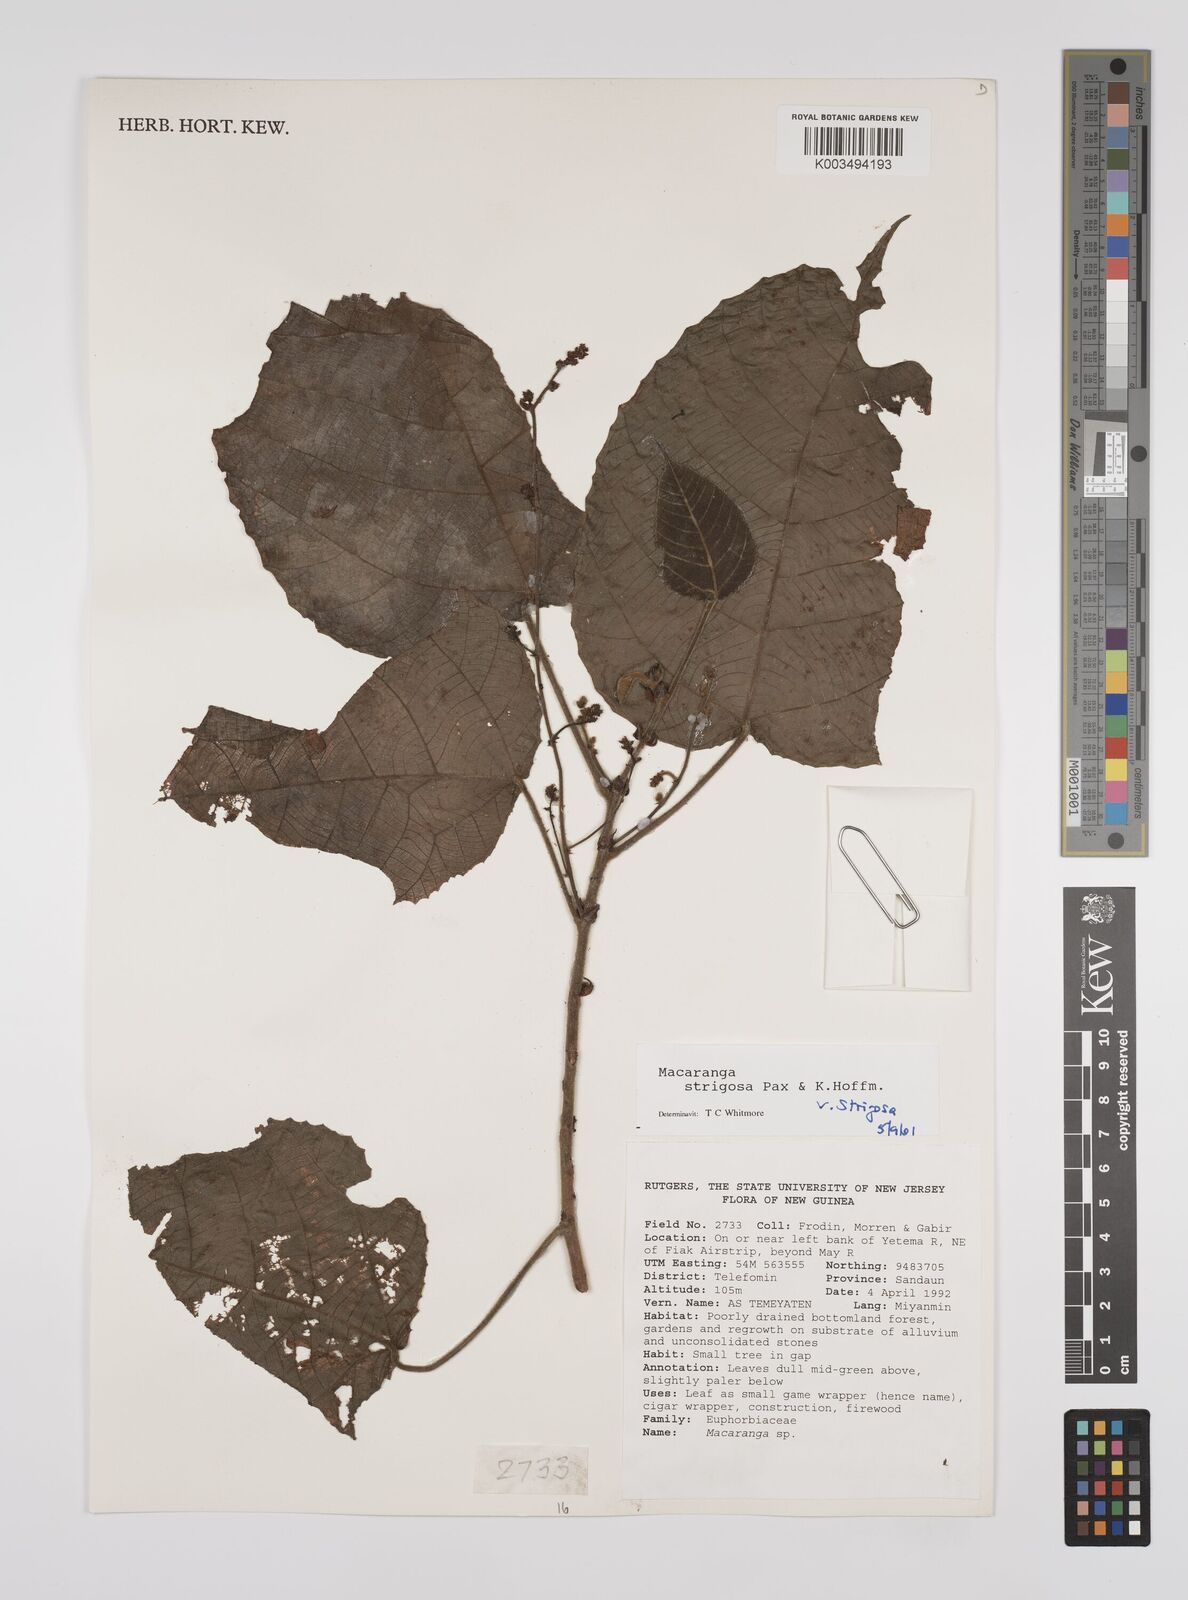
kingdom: Plantae
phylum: Tracheophyta
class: Magnoliopsida
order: Malpighiales
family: Euphorbiaceae
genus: Macaranga
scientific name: Macaranga strigosa
